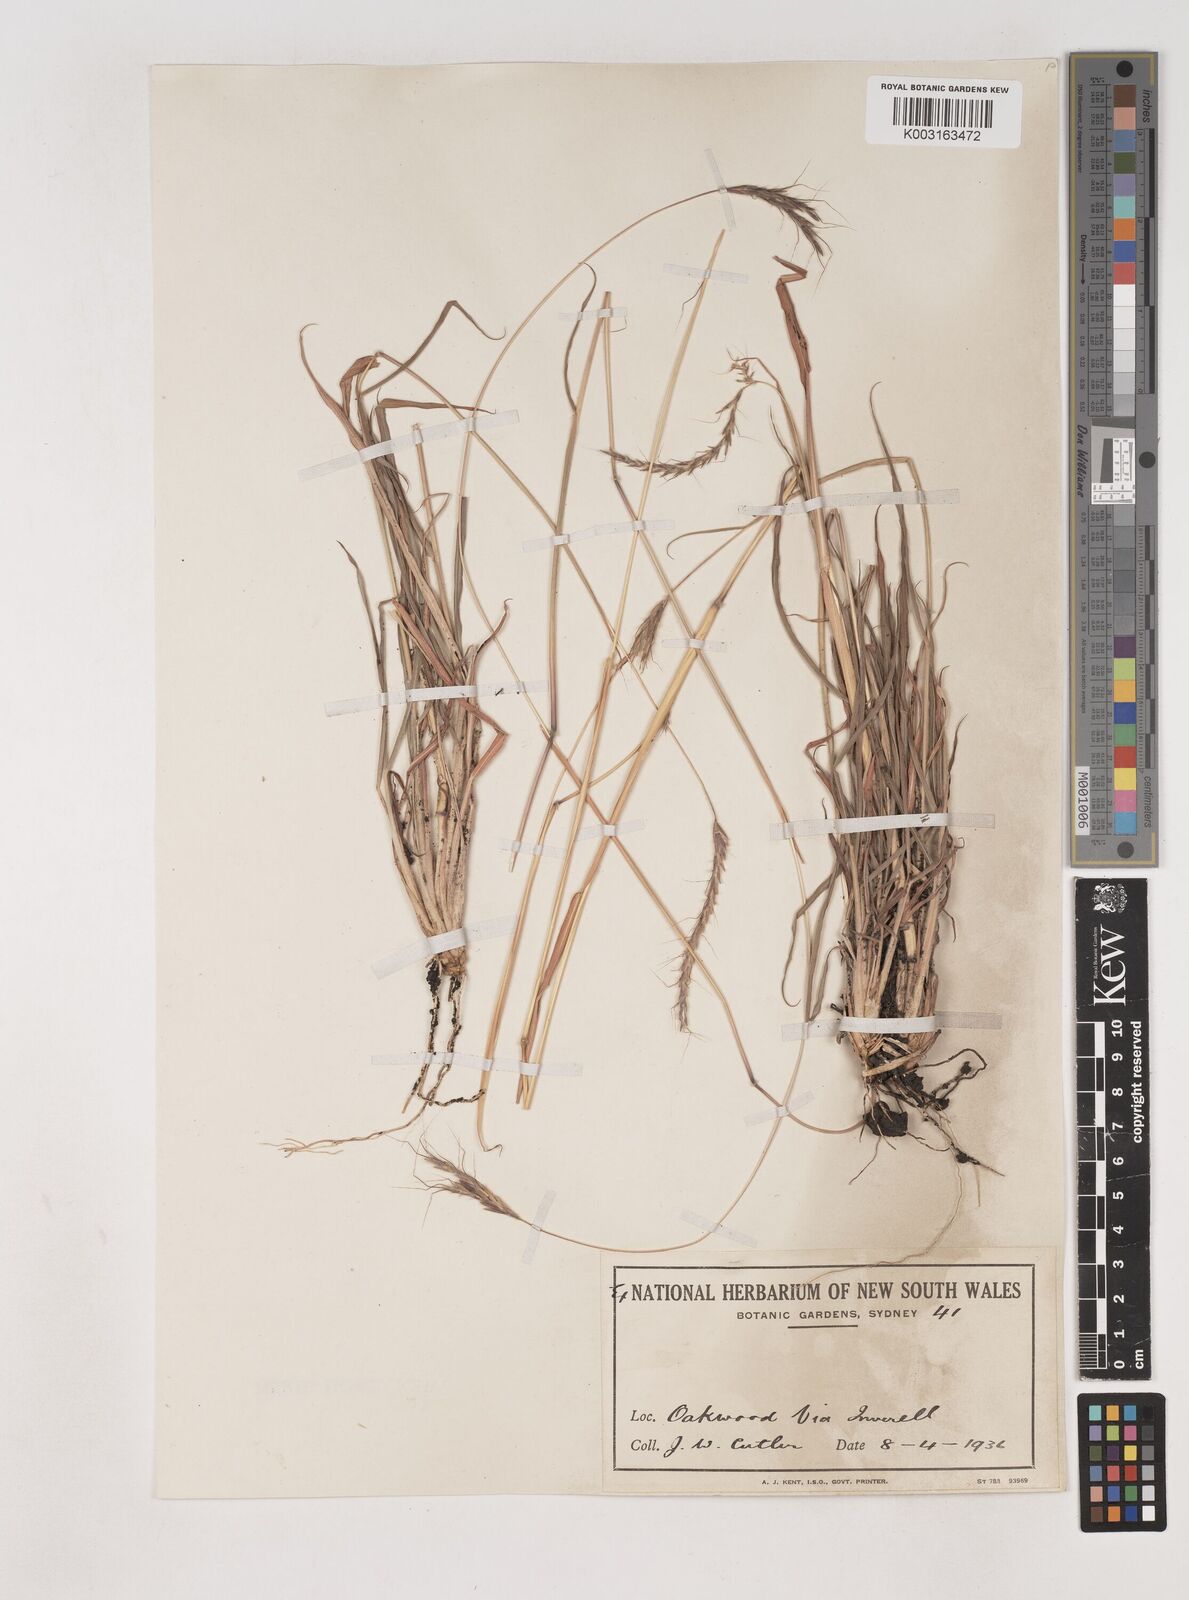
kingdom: Plantae
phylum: Tracheophyta
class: Liliopsida
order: Poales
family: Poaceae
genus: Dichanthium
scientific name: Dichanthium setosum
